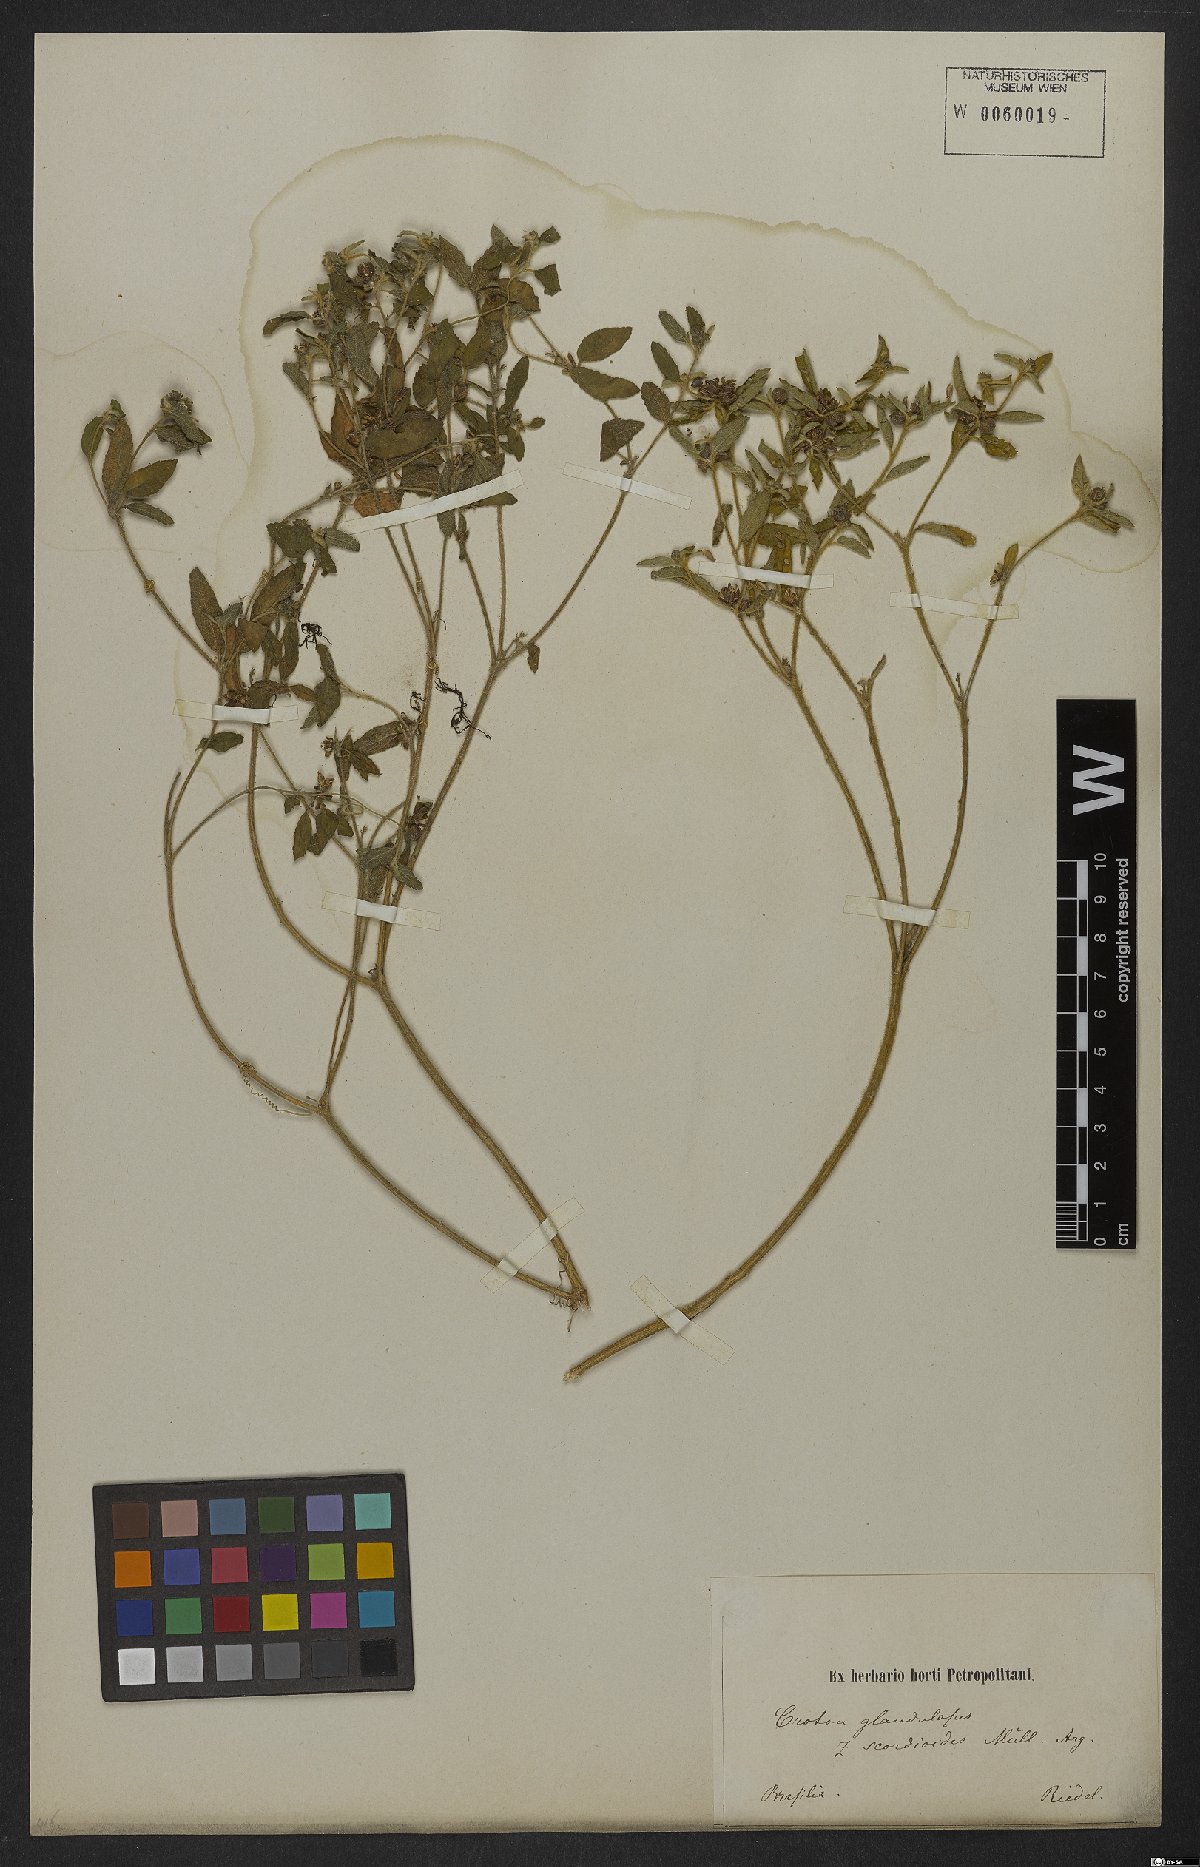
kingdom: Plantae
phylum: Tracheophyta
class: Magnoliopsida
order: Malpighiales
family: Euphorbiaceae
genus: Croton
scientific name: Croton glandulosus
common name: Tropic croton
